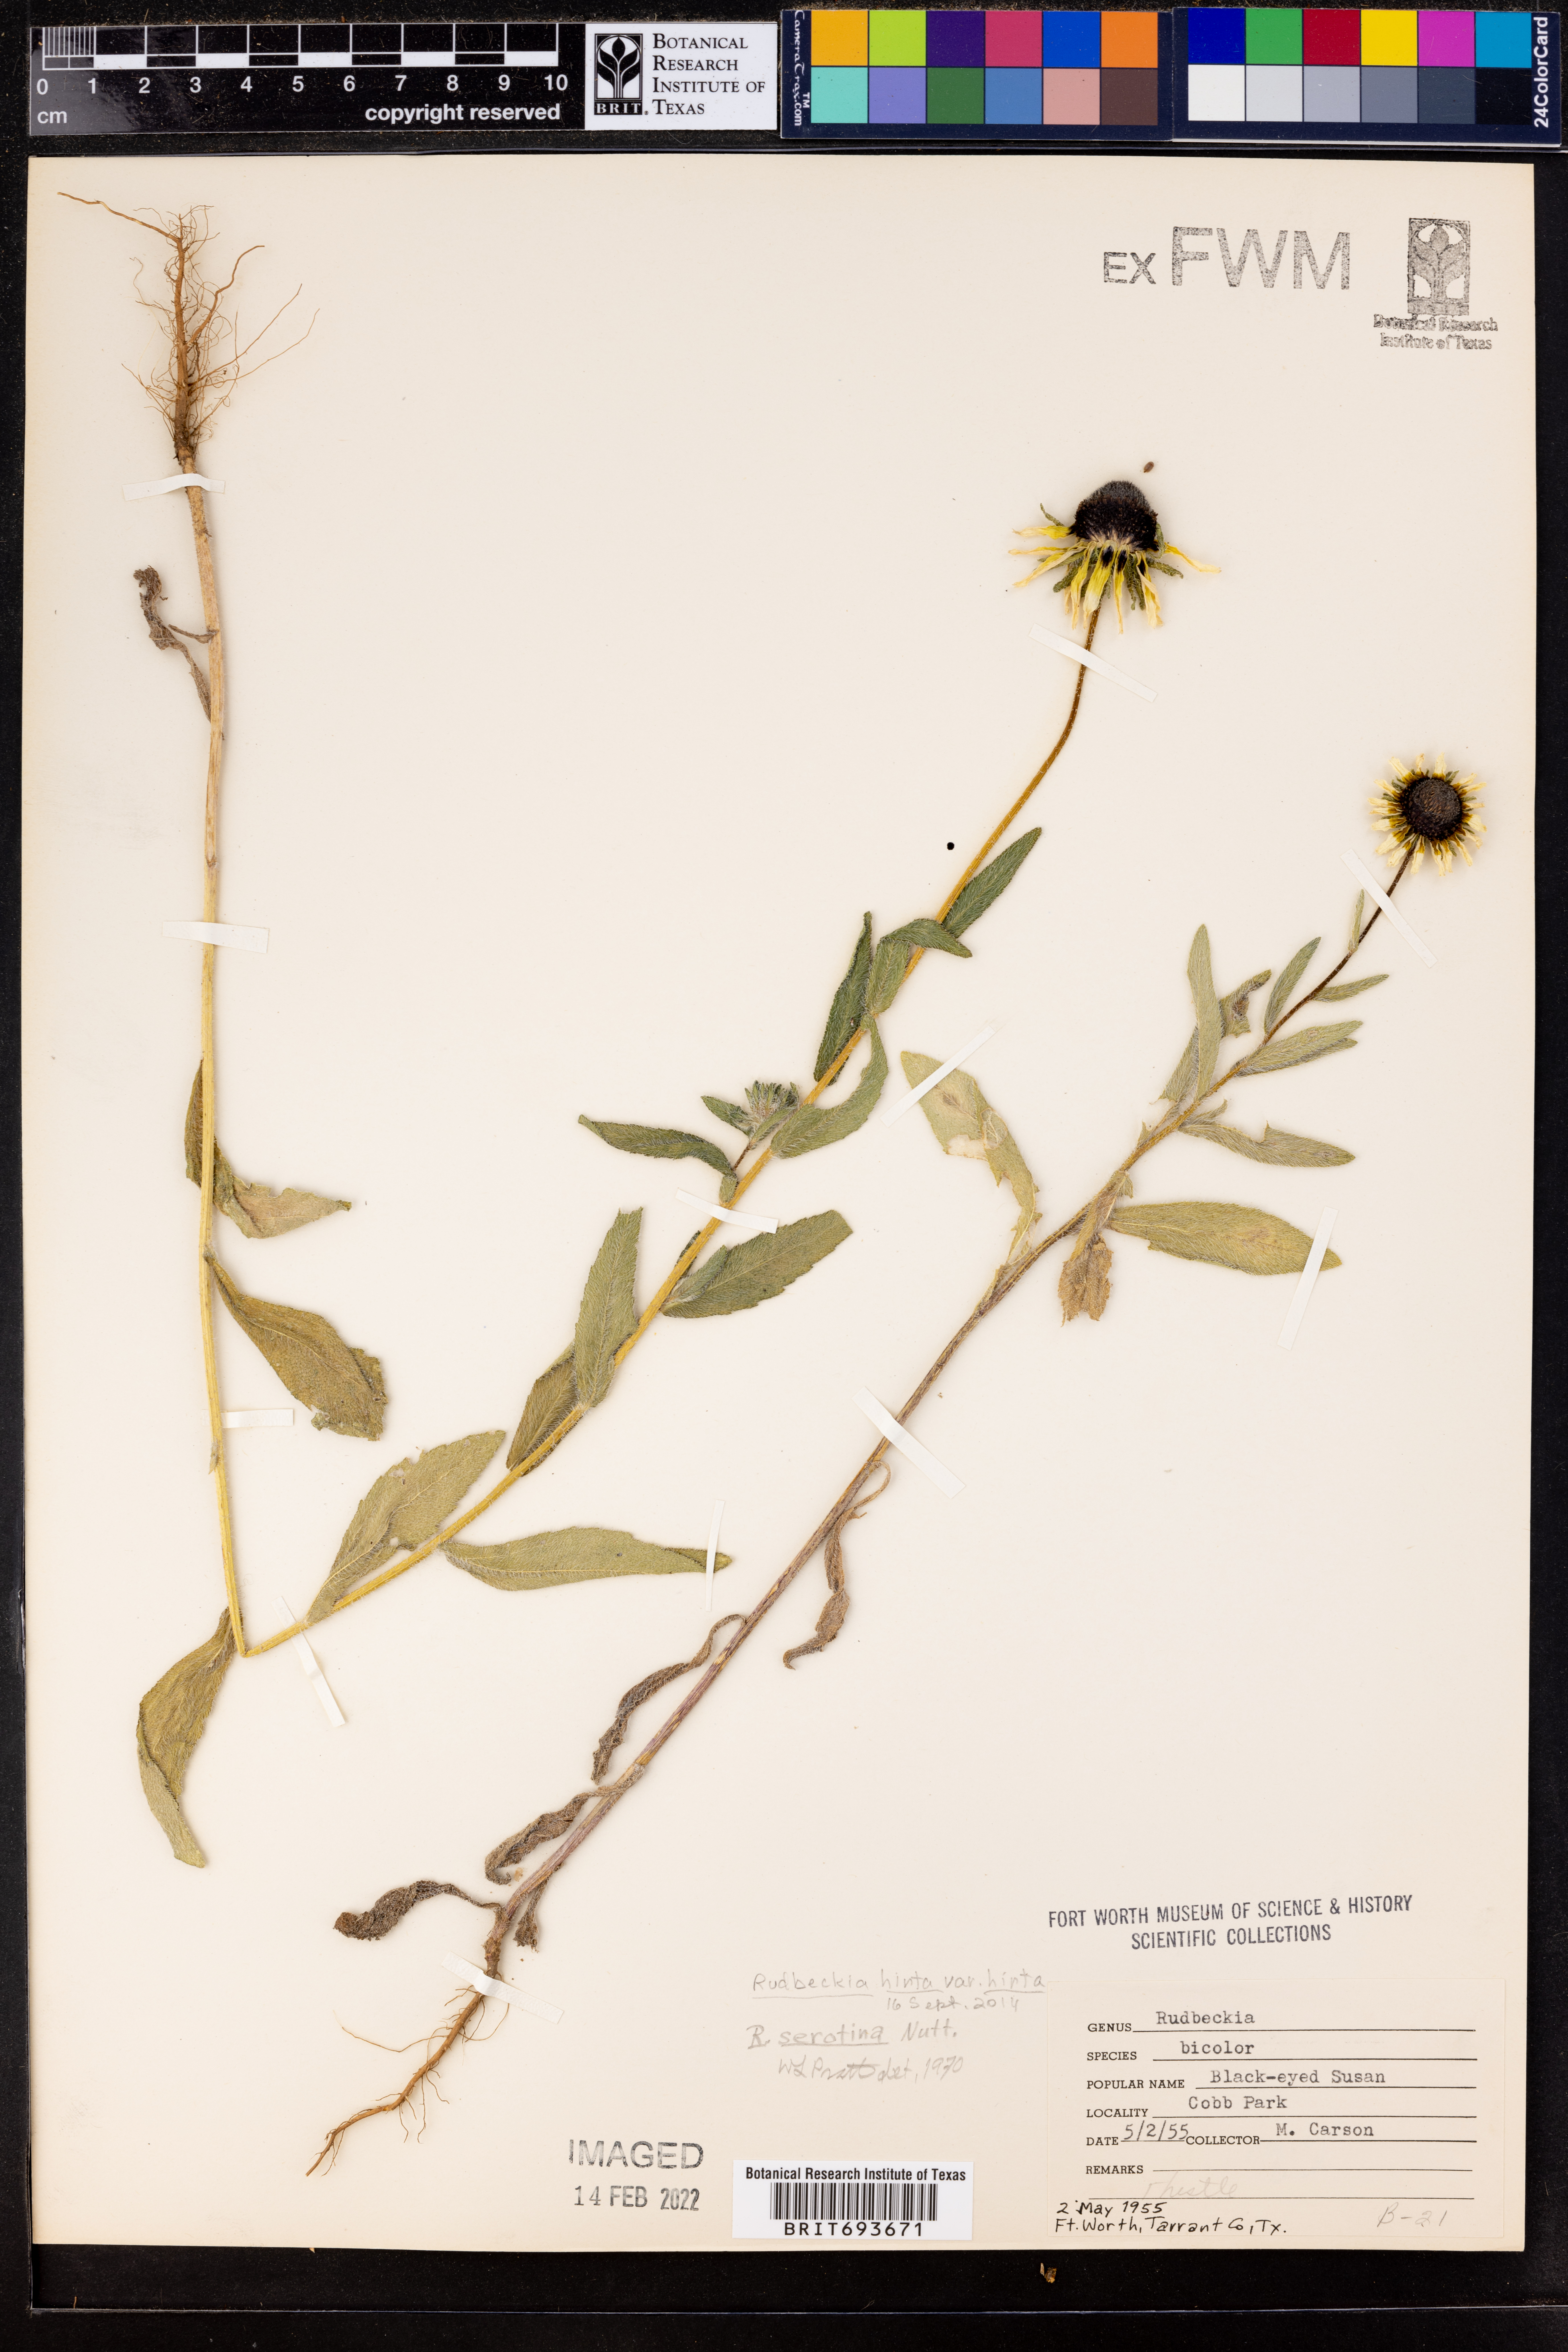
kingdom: Plantae
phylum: Tracheophyta
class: Magnoliopsida
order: Asterales
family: Asteraceae
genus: Rudbeckia
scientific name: Rudbeckia hirta
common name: Black-eyed-susan
